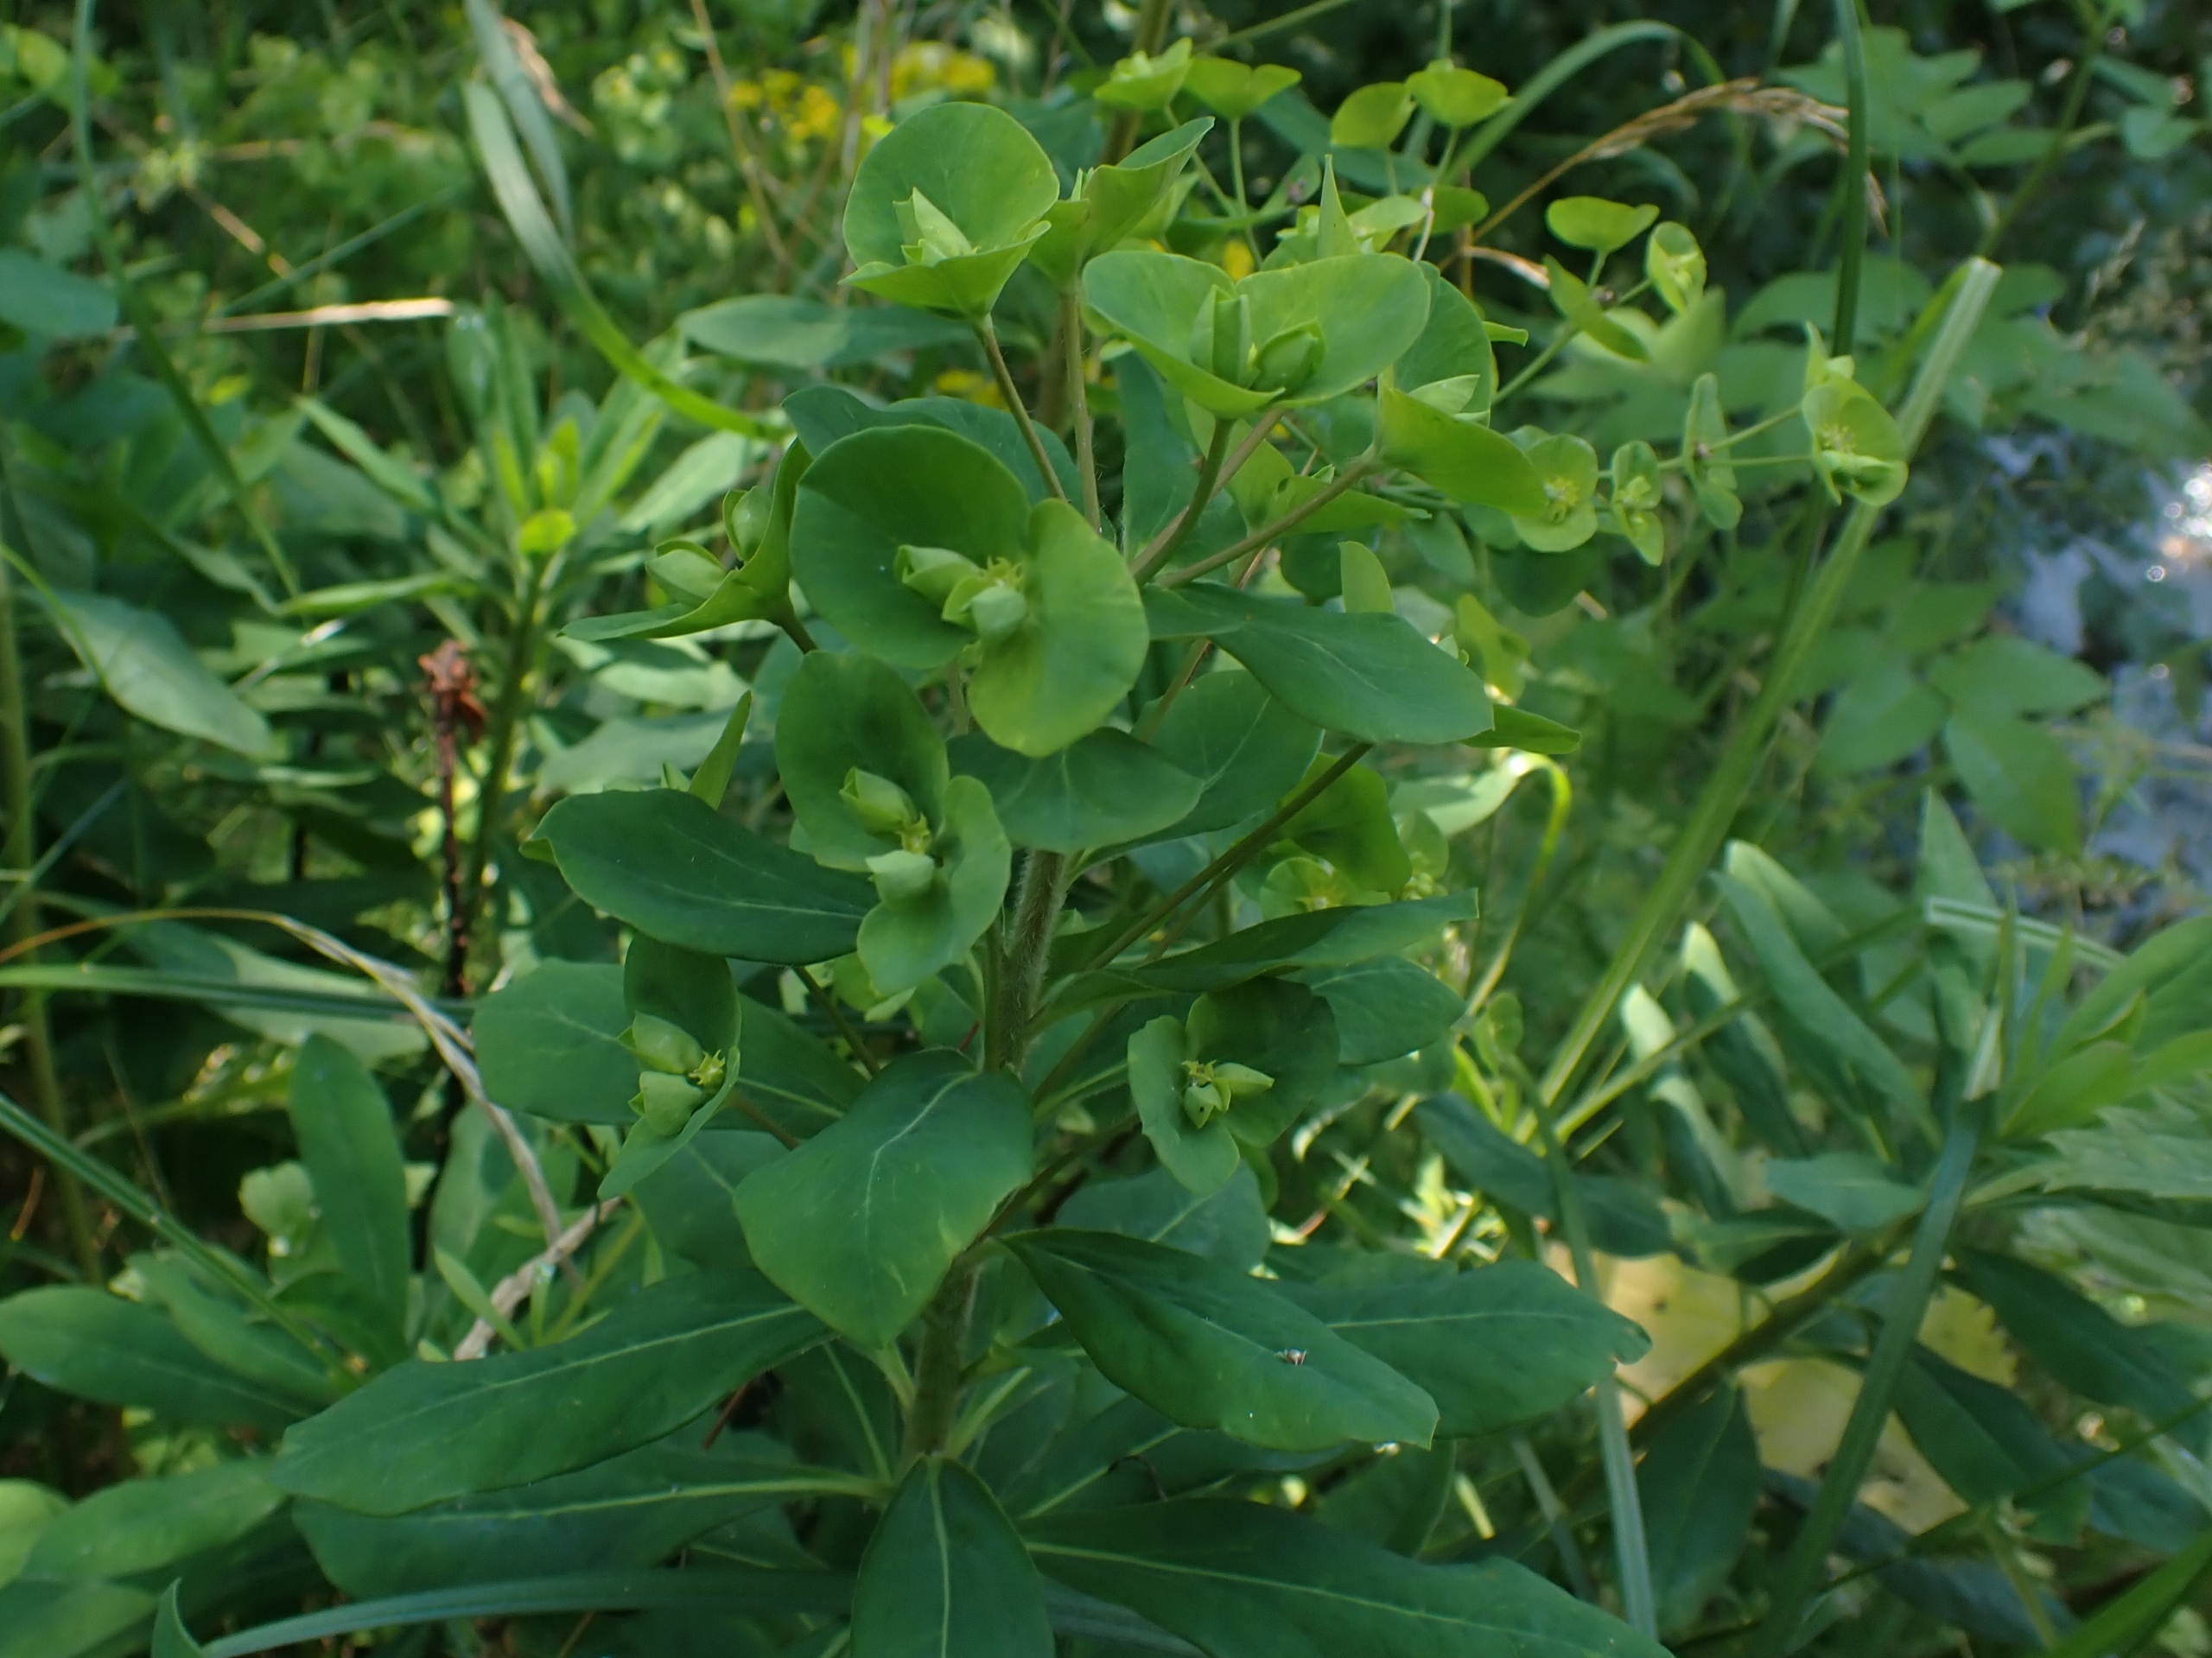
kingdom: Plantae
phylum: Tracheophyta
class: Magnoliopsida
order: Malpighiales
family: Euphorbiaceae
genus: Euphorbia
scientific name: Euphorbia amygdaloides
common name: Mandel-vortemælk
